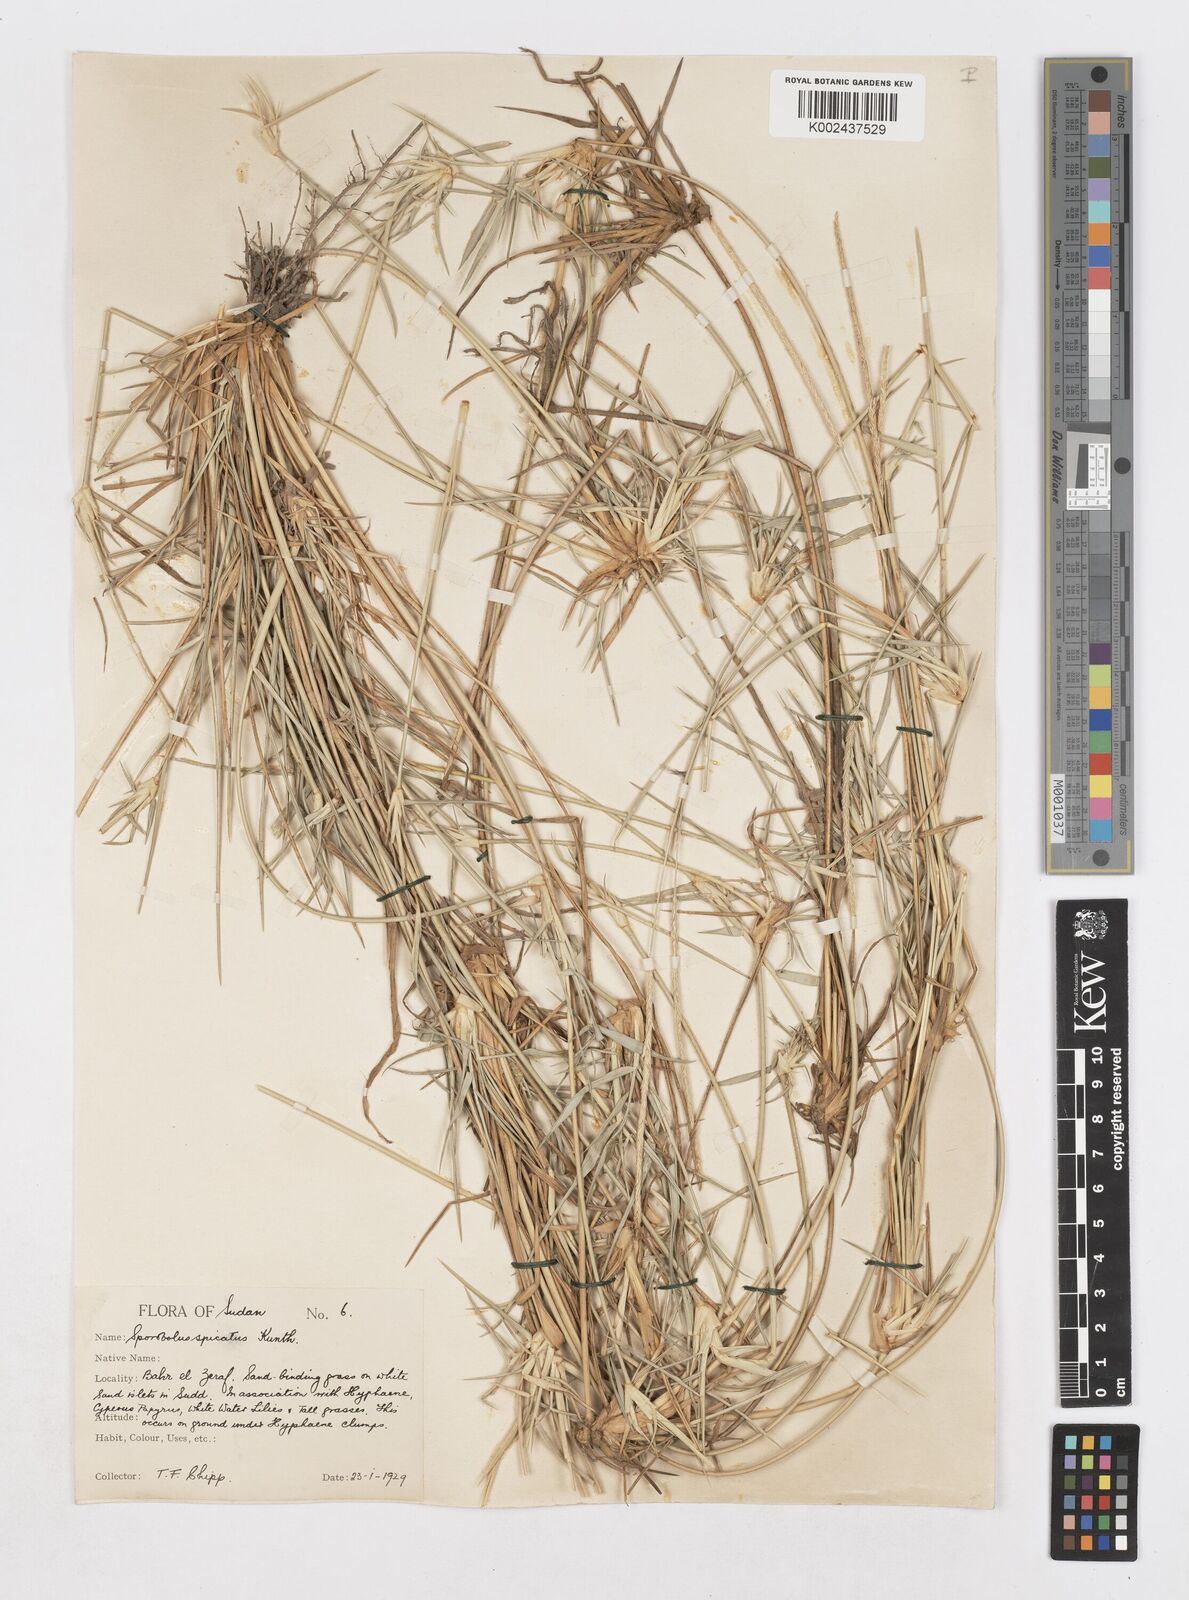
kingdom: Plantae
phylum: Tracheophyta
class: Liliopsida
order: Poales
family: Poaceae
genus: Sporobolus
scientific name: Sporobolus spicatus
